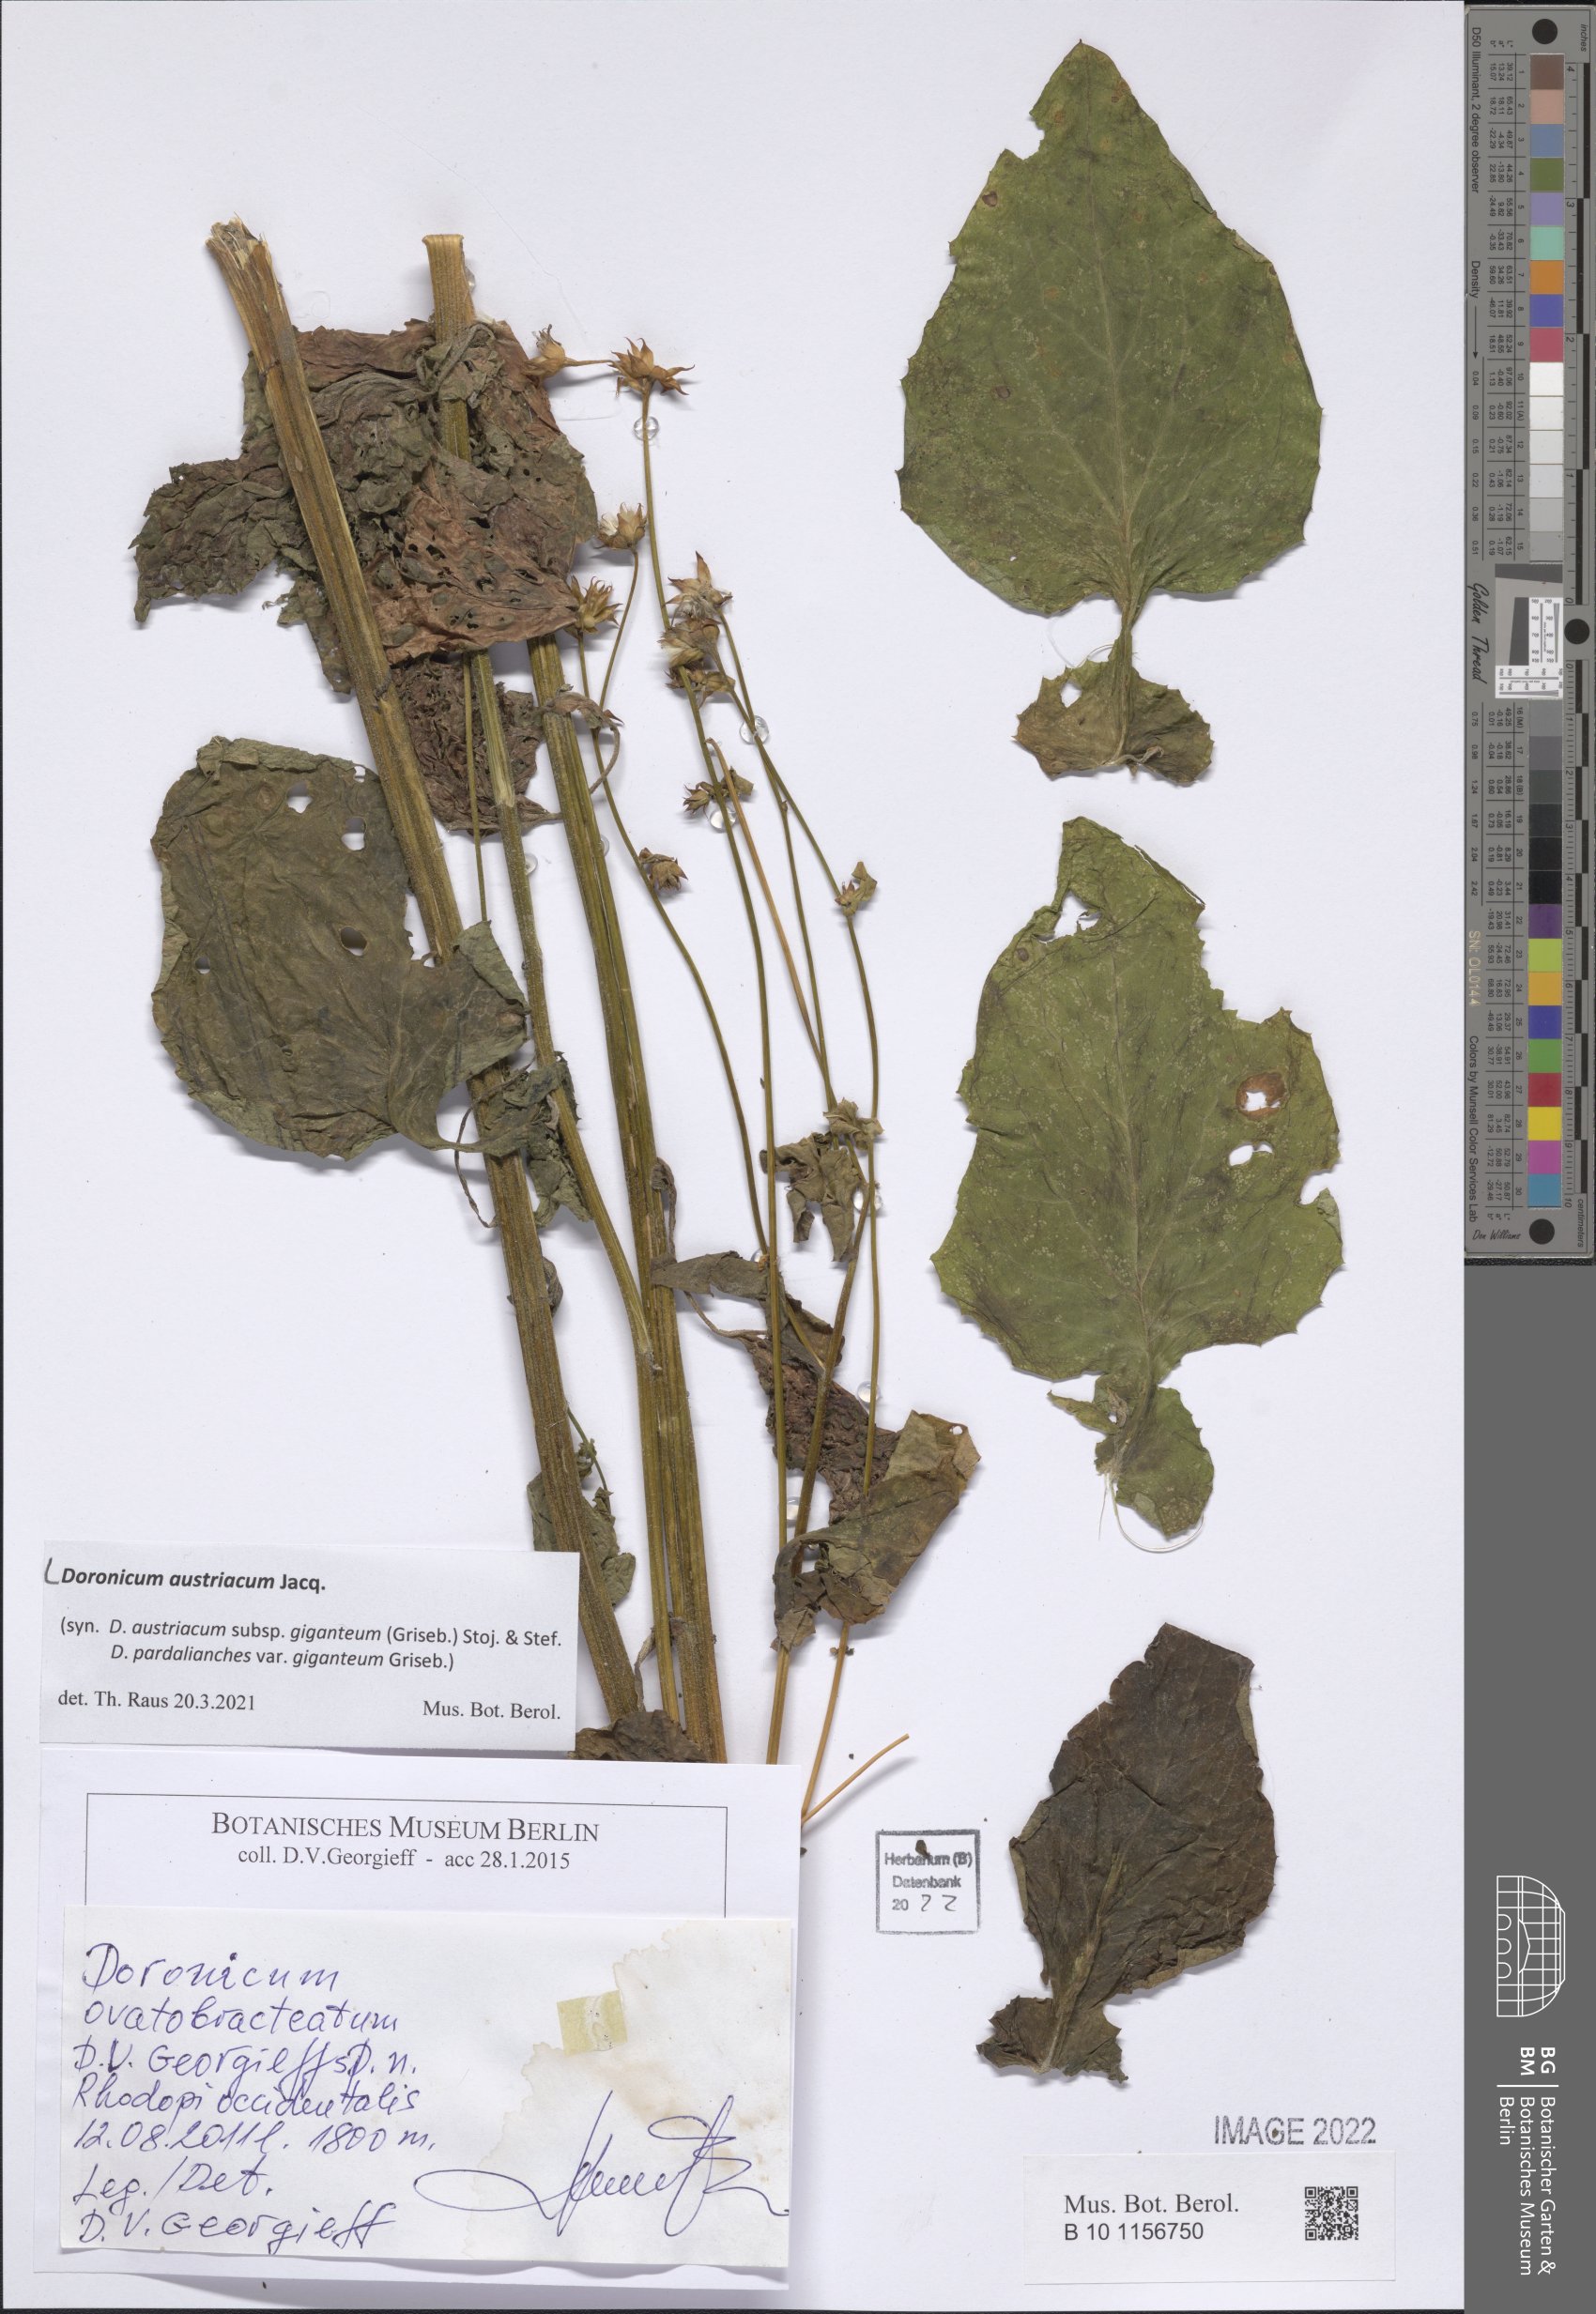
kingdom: Plantae
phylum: Tracheophyta
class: Magnoliopsida
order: Asterales
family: Asteraceae
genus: Doronicum
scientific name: Doronicum austriacum
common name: Austrian leopard's-bane
